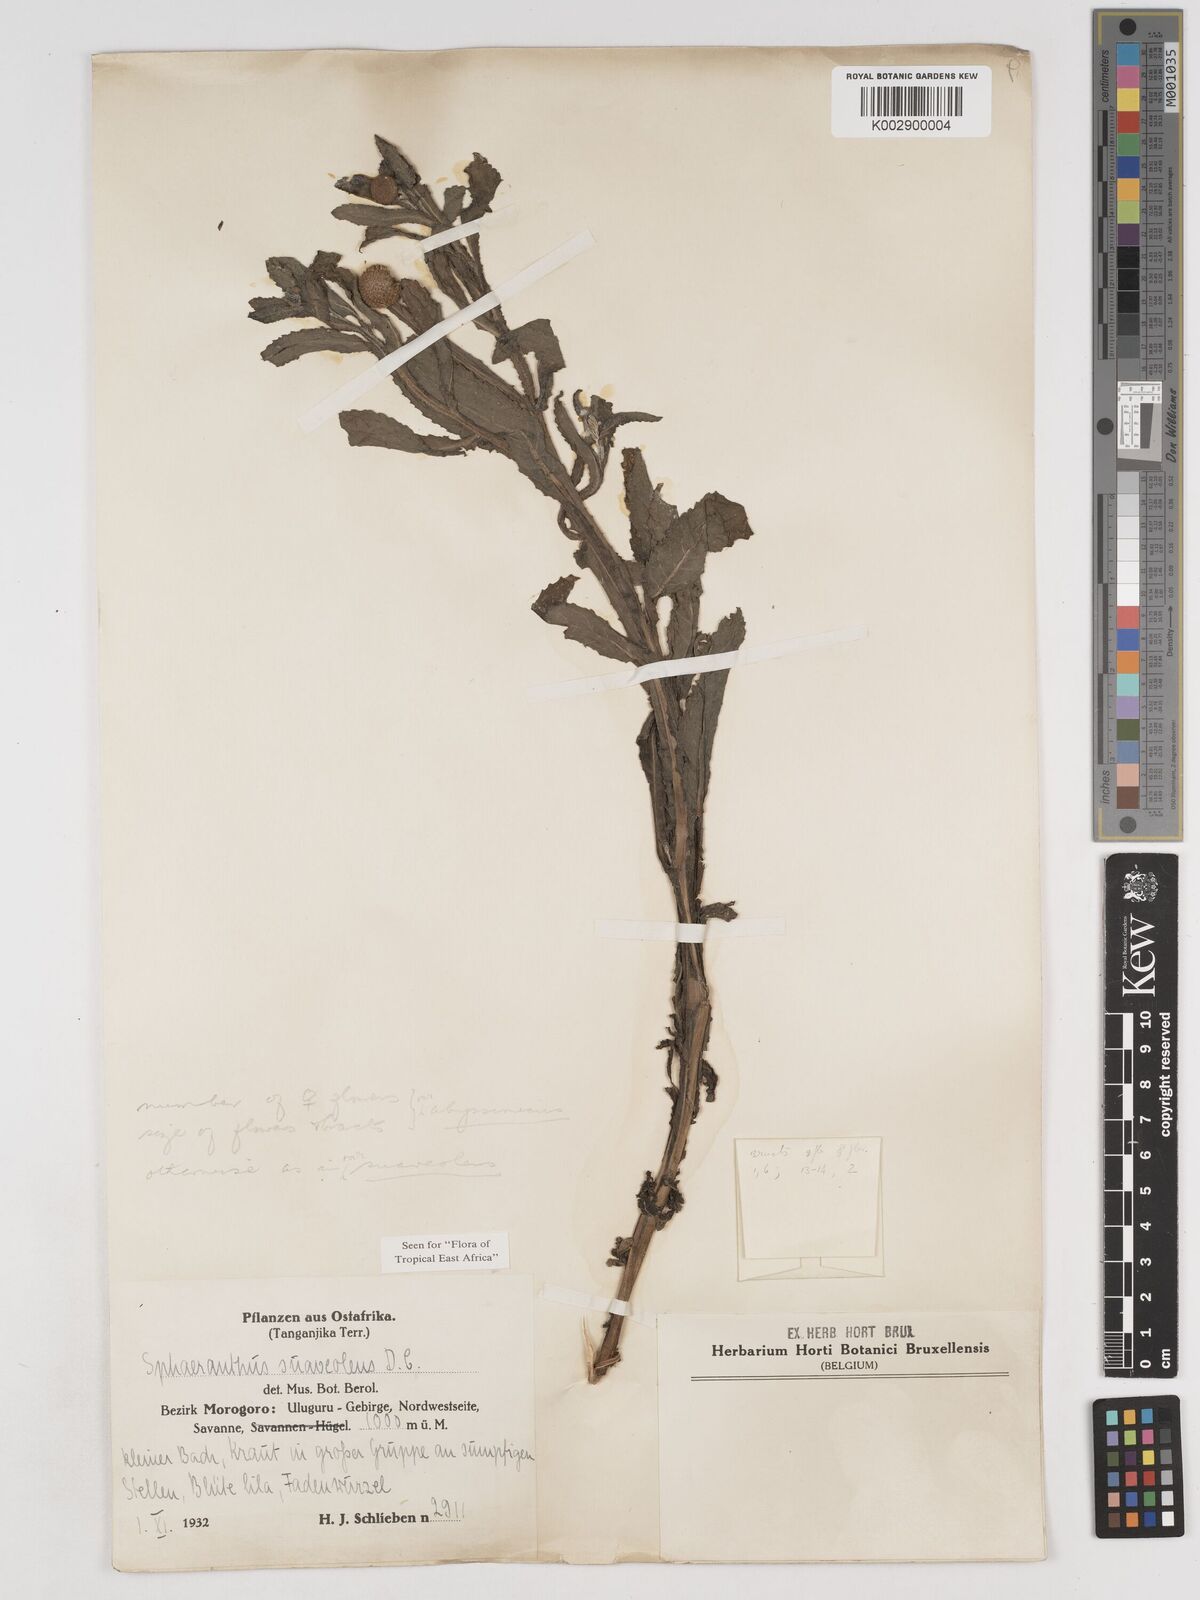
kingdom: Plantae
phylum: Tracheophyta
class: Magnoliopsida
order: Asterales
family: Asteraceae
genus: Sphaeranthus
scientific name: Sphaeranthus suaveolens
